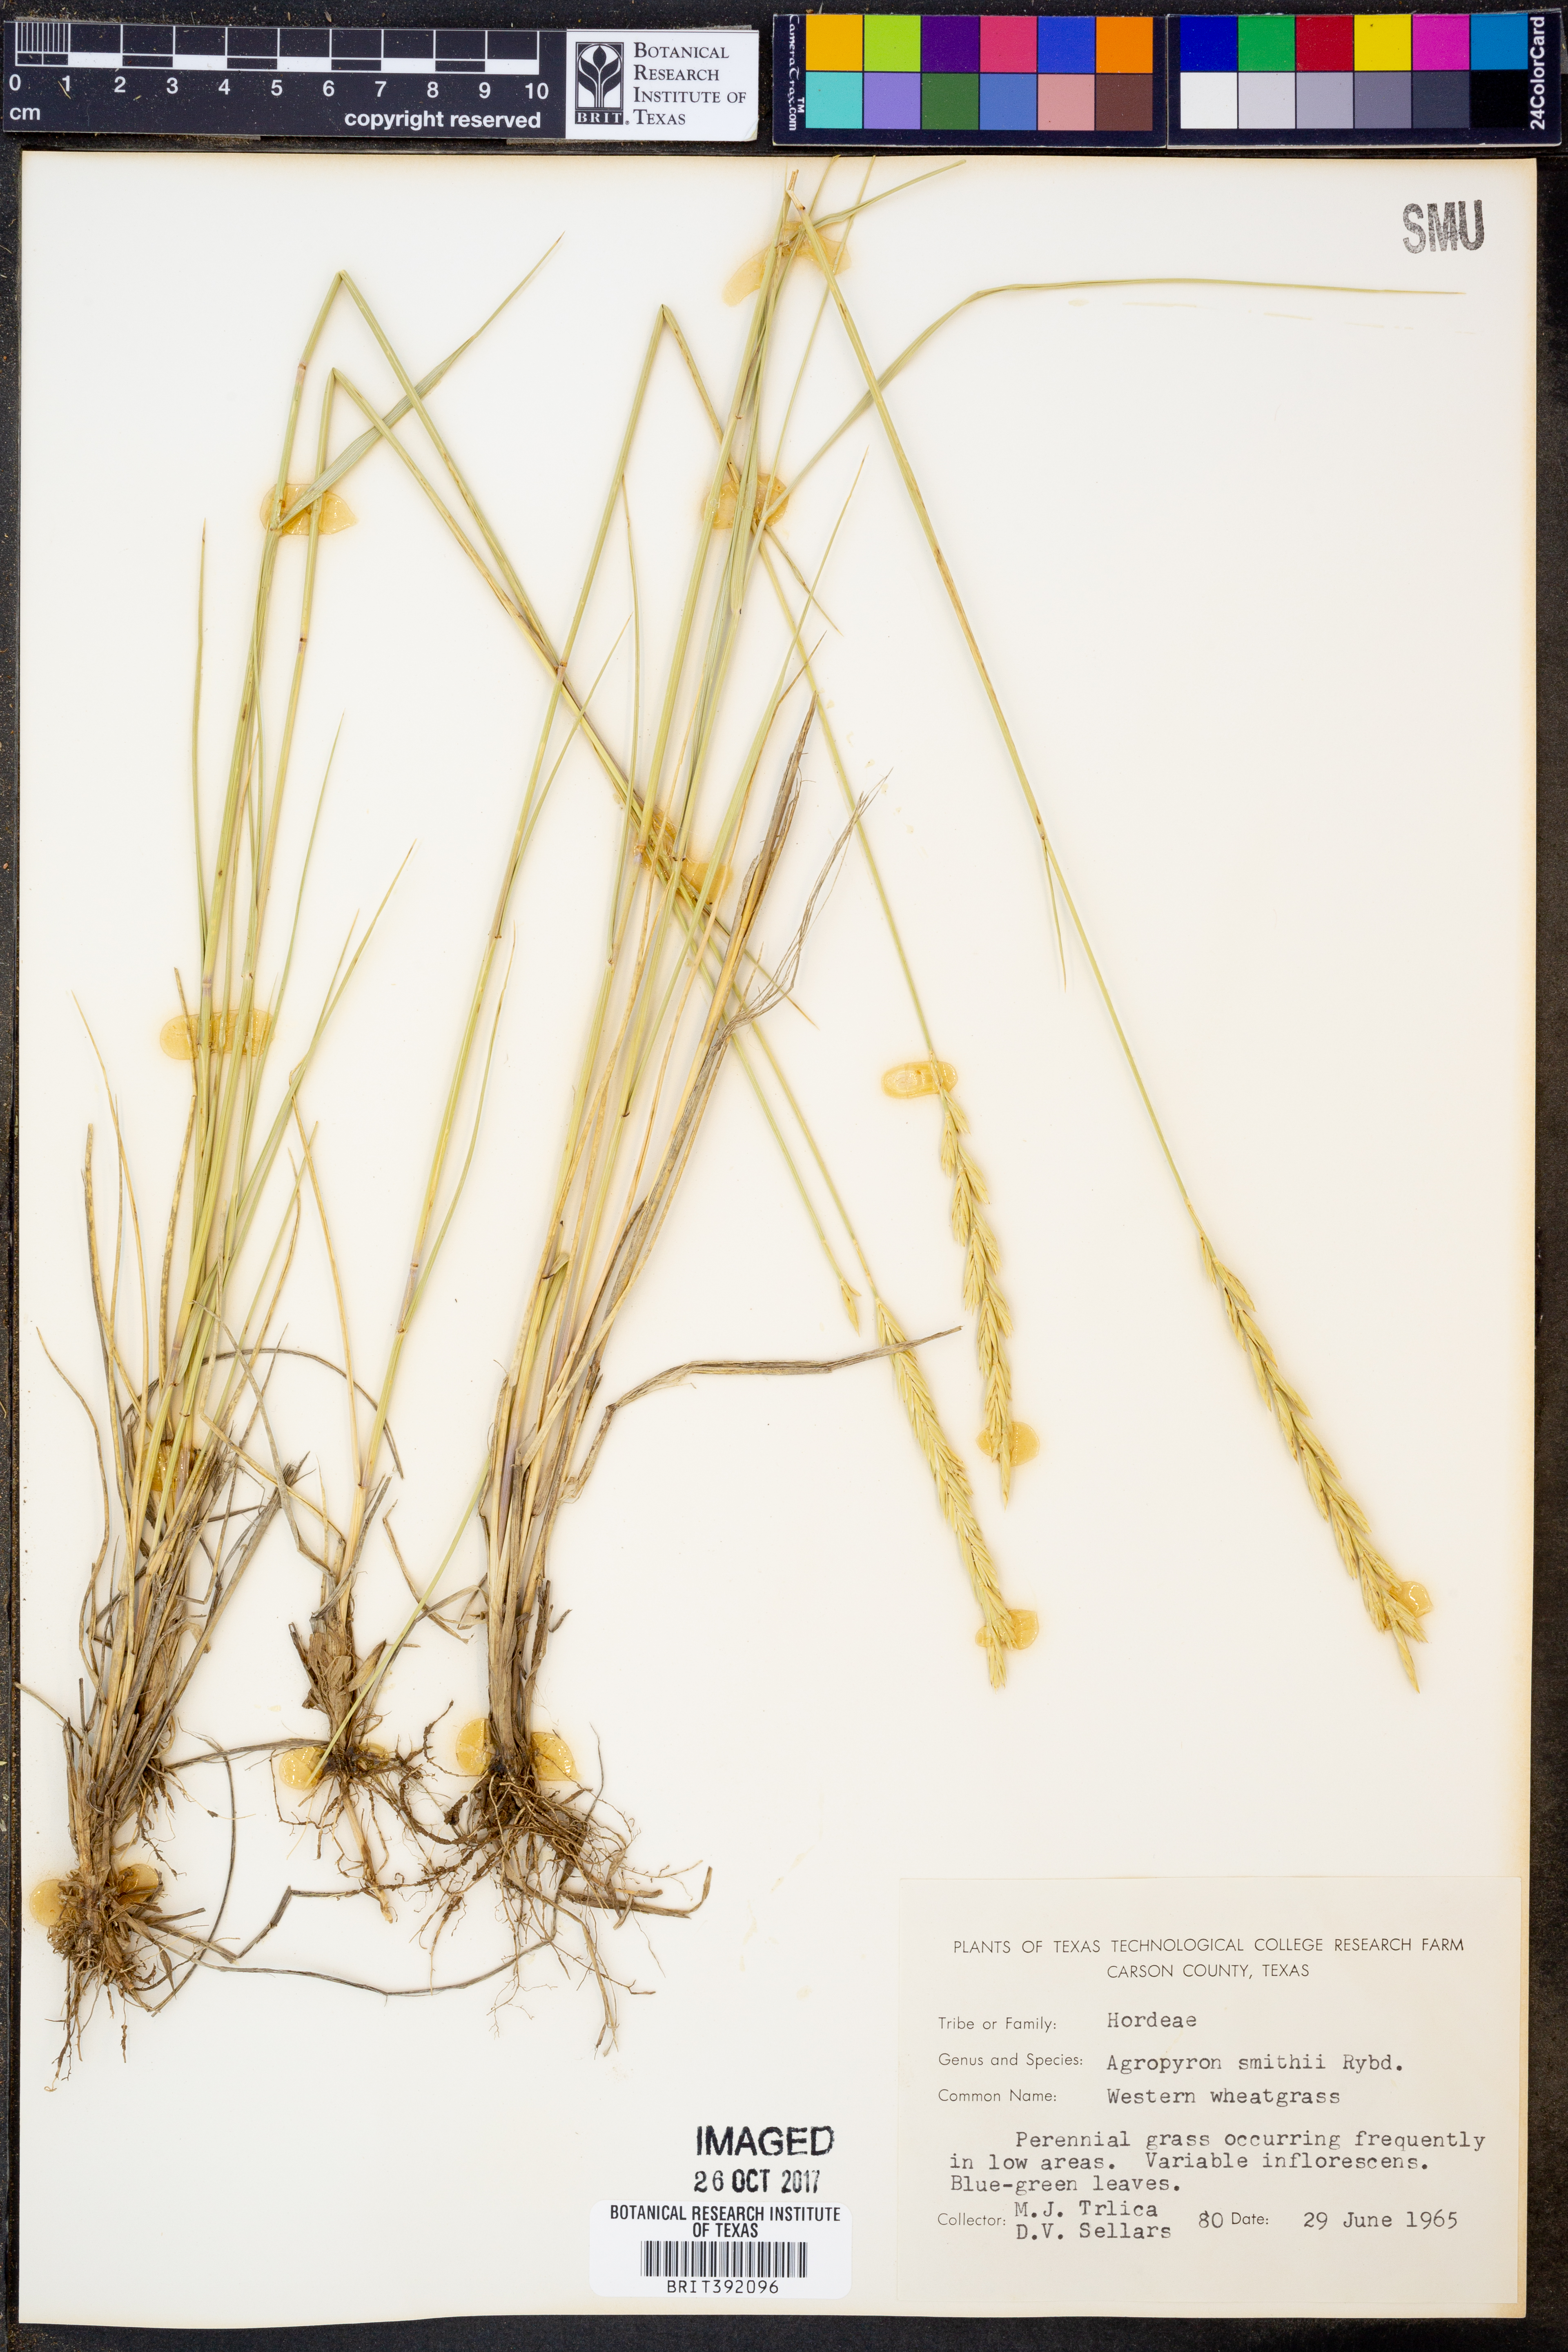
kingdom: Plantae
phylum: Tracheophyta
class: Liliopsida
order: Poales
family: Poaceae
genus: Elymus
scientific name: Elymus smithii
